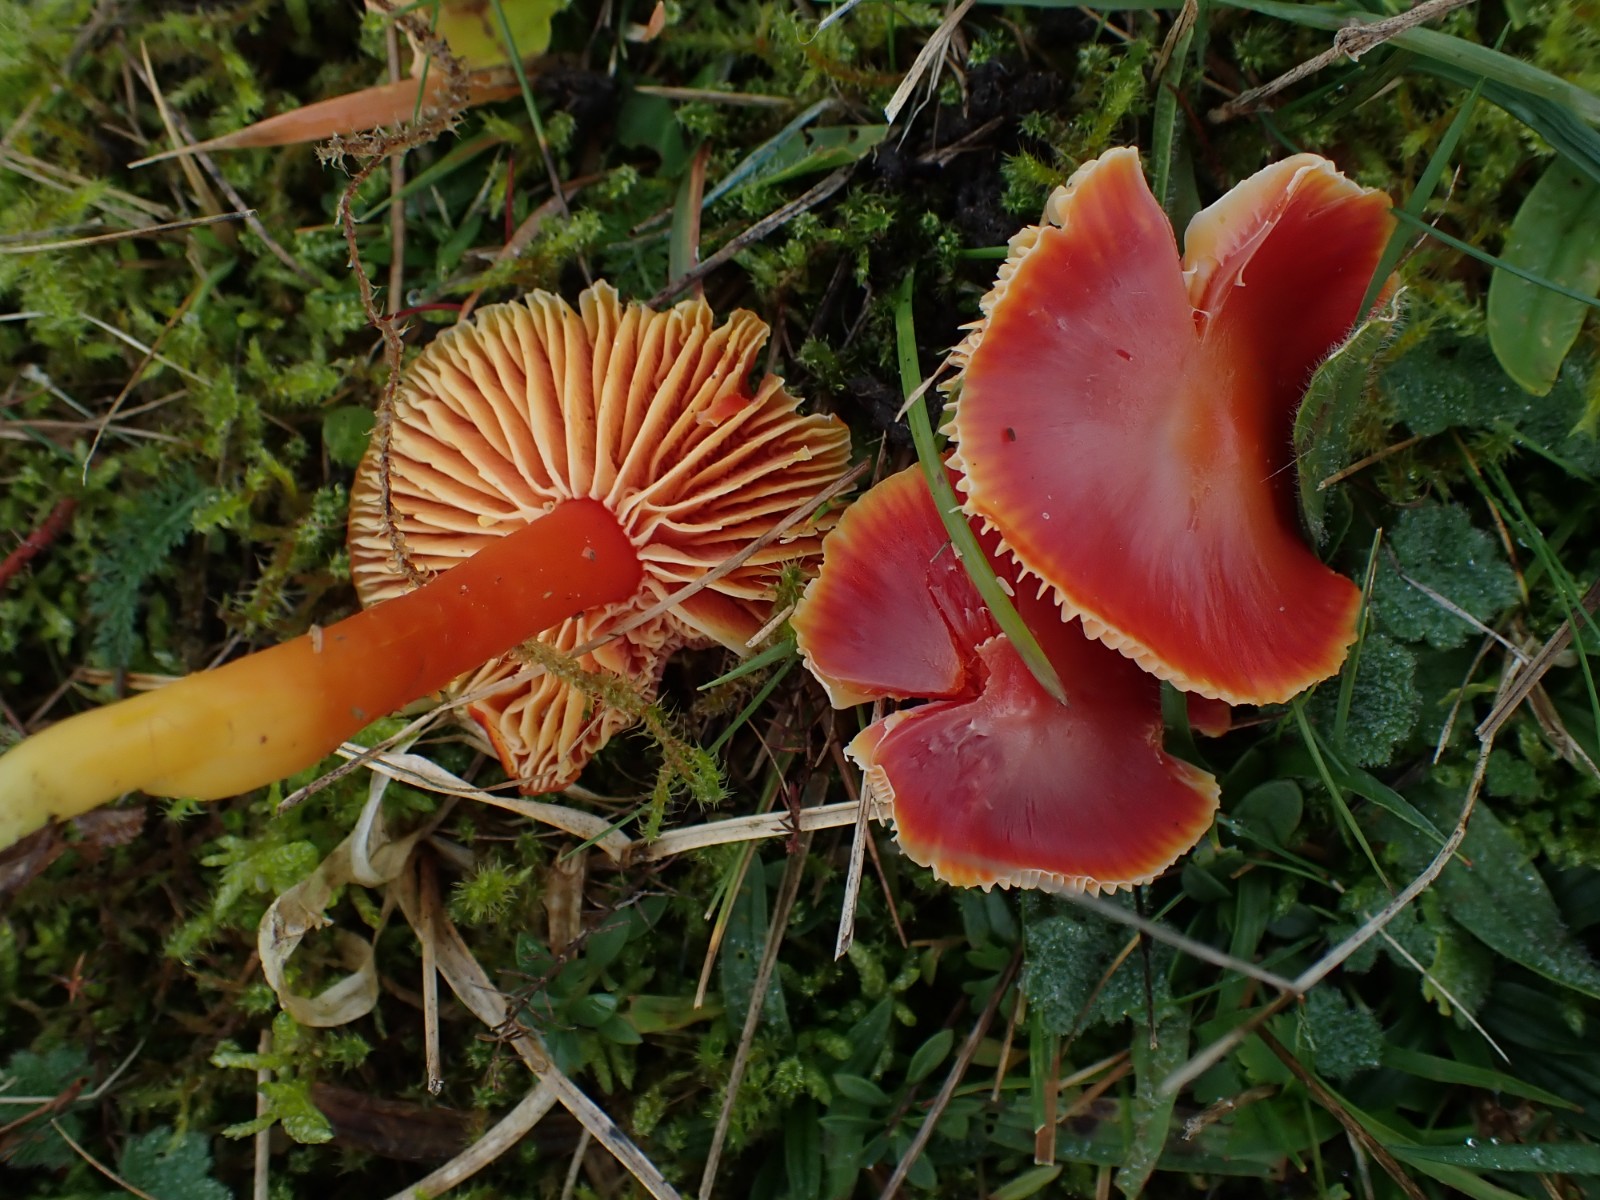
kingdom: Fungi
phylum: Basidiomycota
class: Agaricomycetes
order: Agaricales
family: Hygrophoraceae
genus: Hygrocybe
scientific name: Hygrocybe coccinea
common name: cinnober-vokshat
